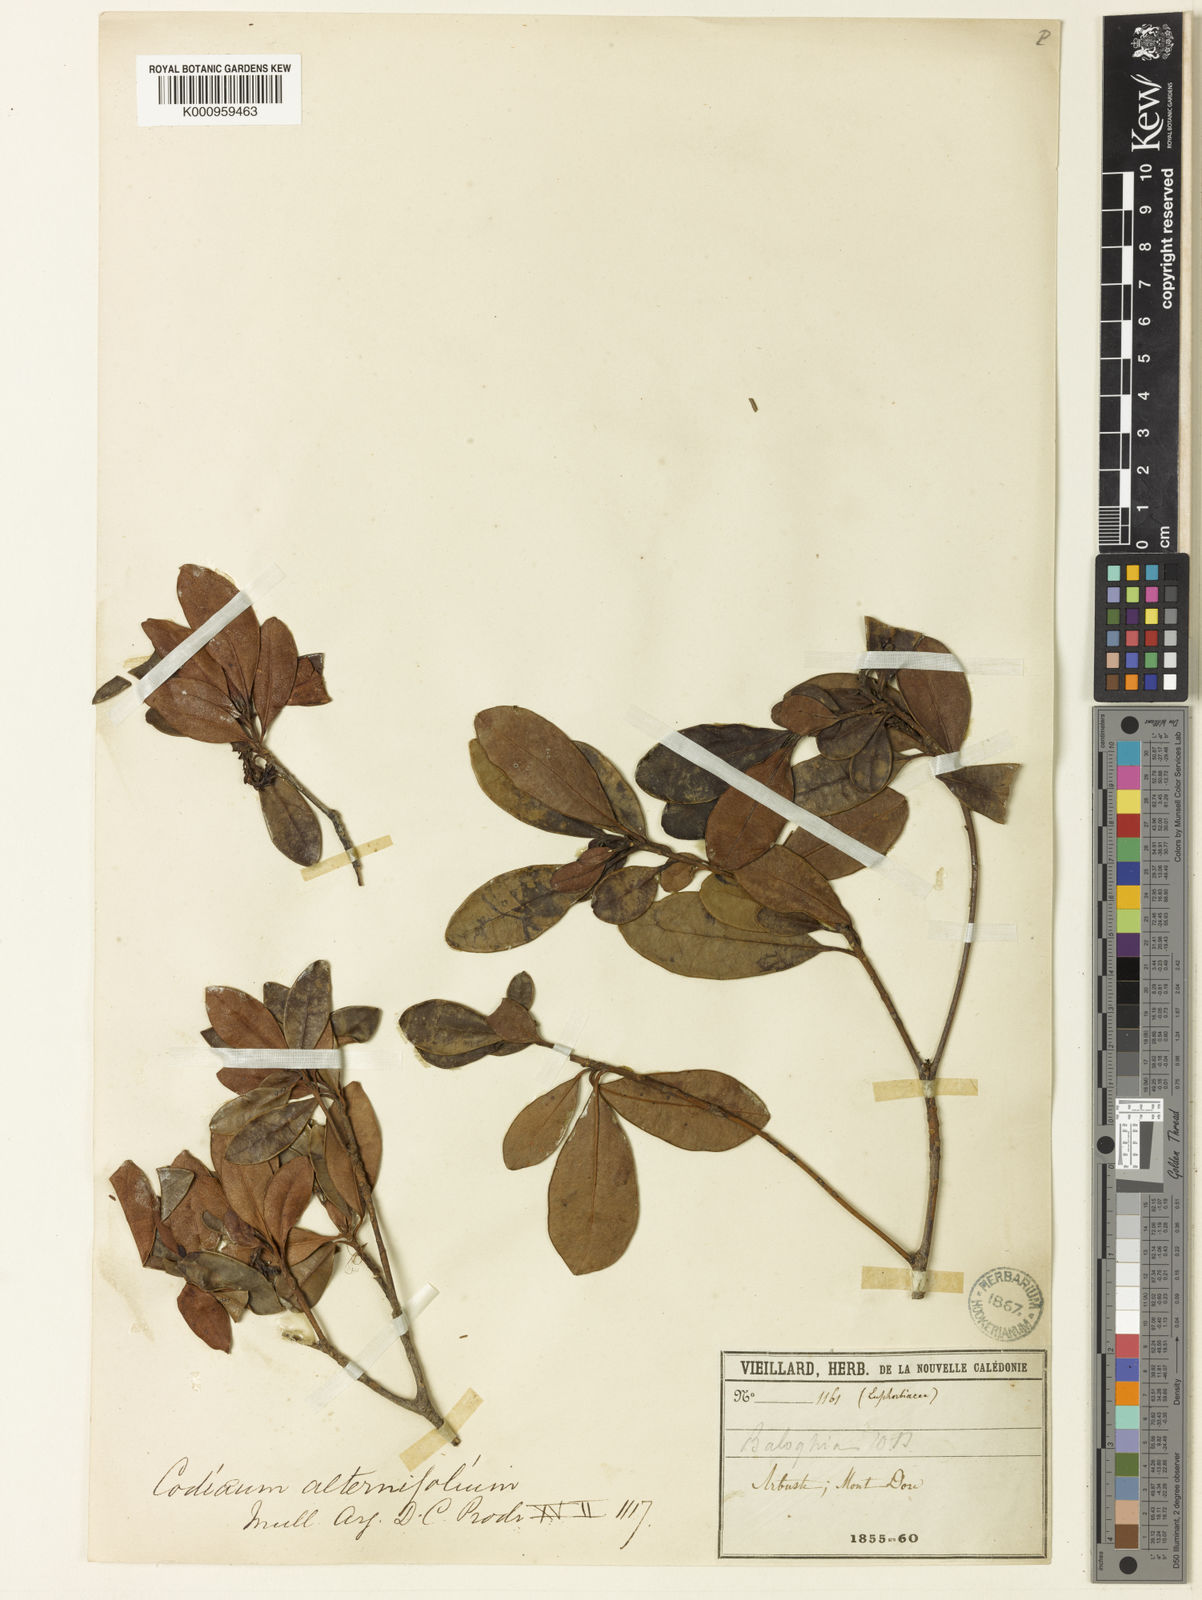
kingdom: Plantae
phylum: Tracheophyta
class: Magnoliopsida
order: Malpighiales
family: Euphorbiaceae
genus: Baloghia
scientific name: Baloghia alternifolia
